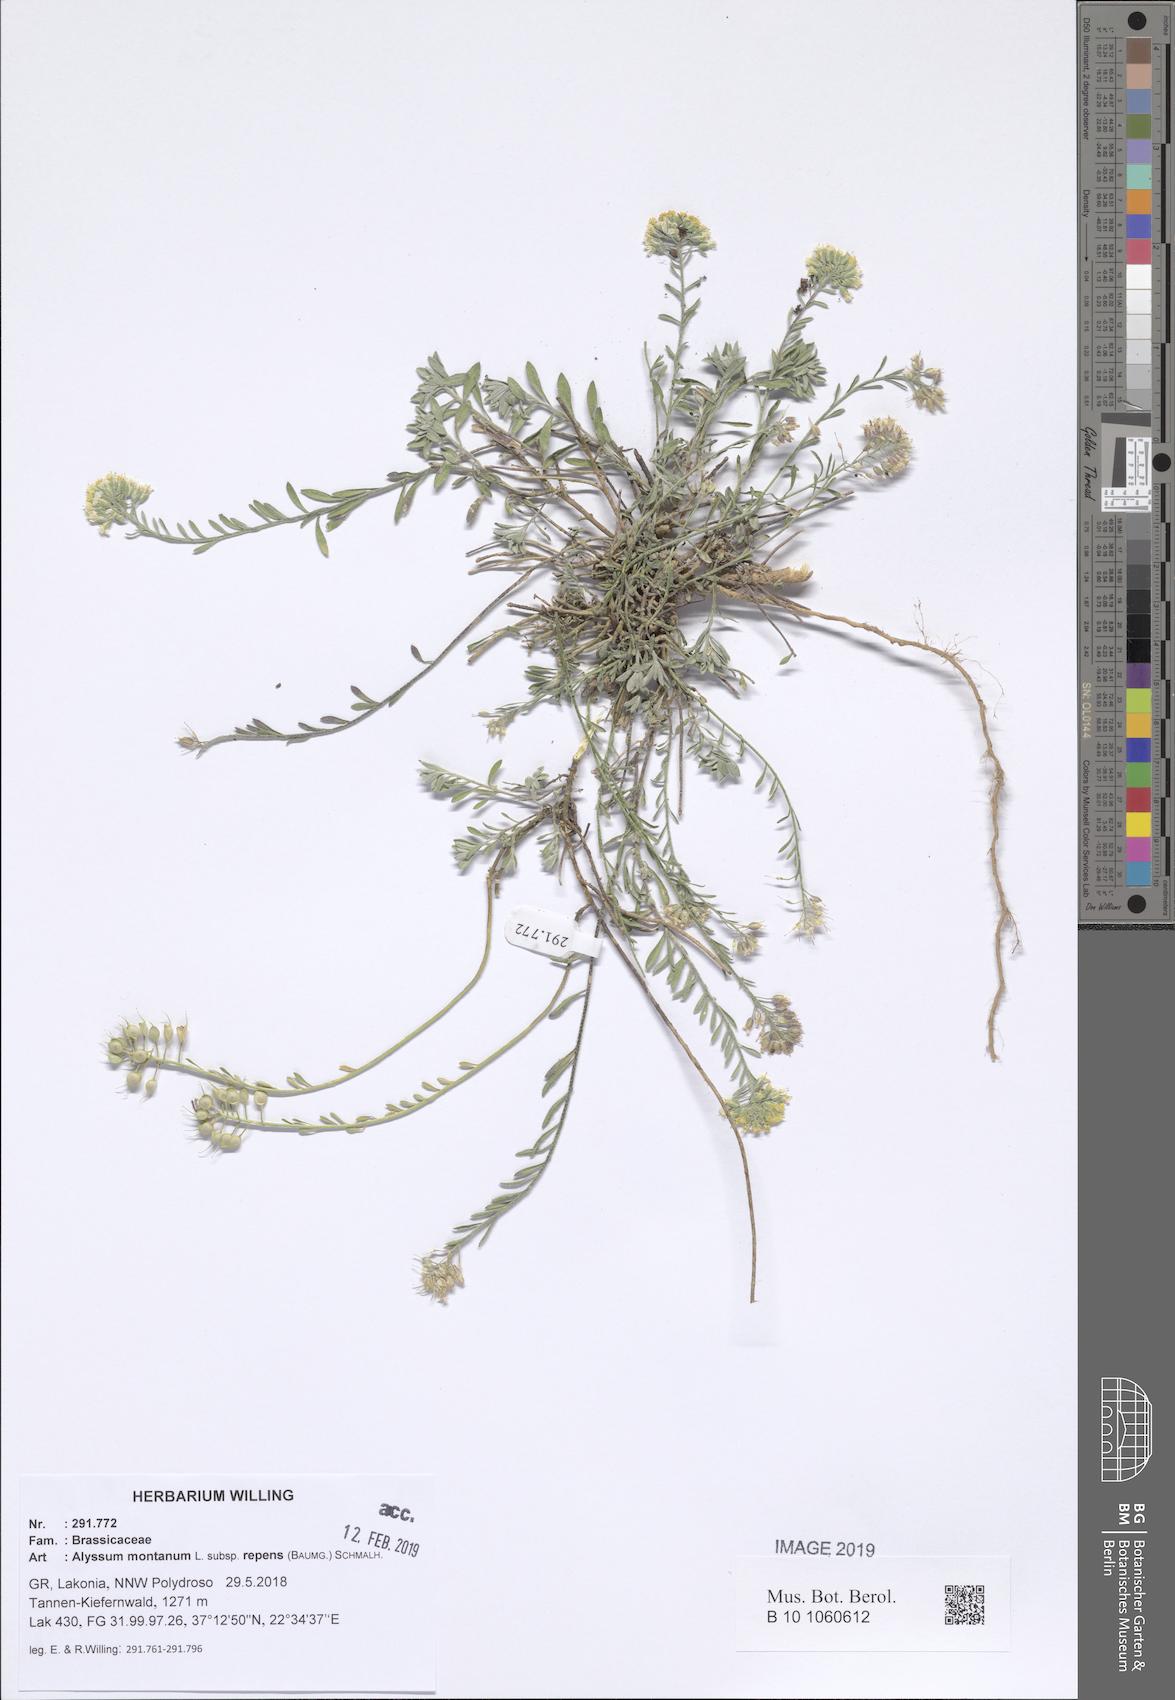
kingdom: Plantae
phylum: Tracheophyta
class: Magnoliopsida
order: Brassicales
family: Brassicaceae
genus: Alyssum
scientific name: Alyssum trichostachyum
